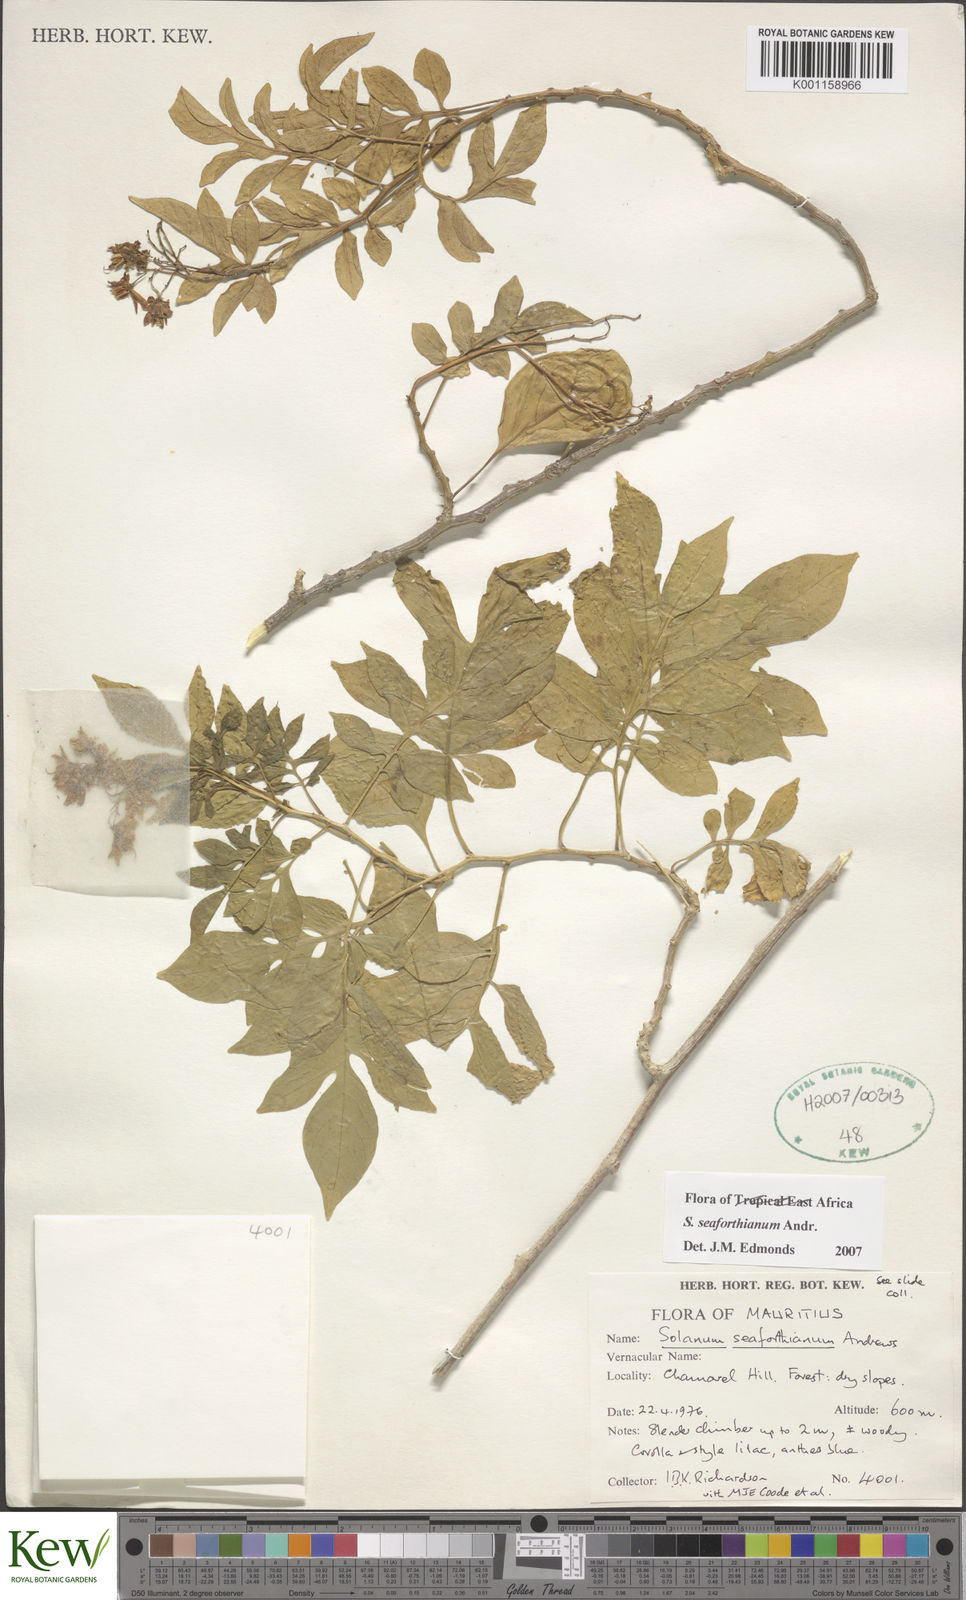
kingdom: Plantae
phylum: Tracheophyta
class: Magnoliopsida
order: Solanales
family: Solanaceae
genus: Solanum
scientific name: Solanum seaforthianum
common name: Brazilian nightshade
